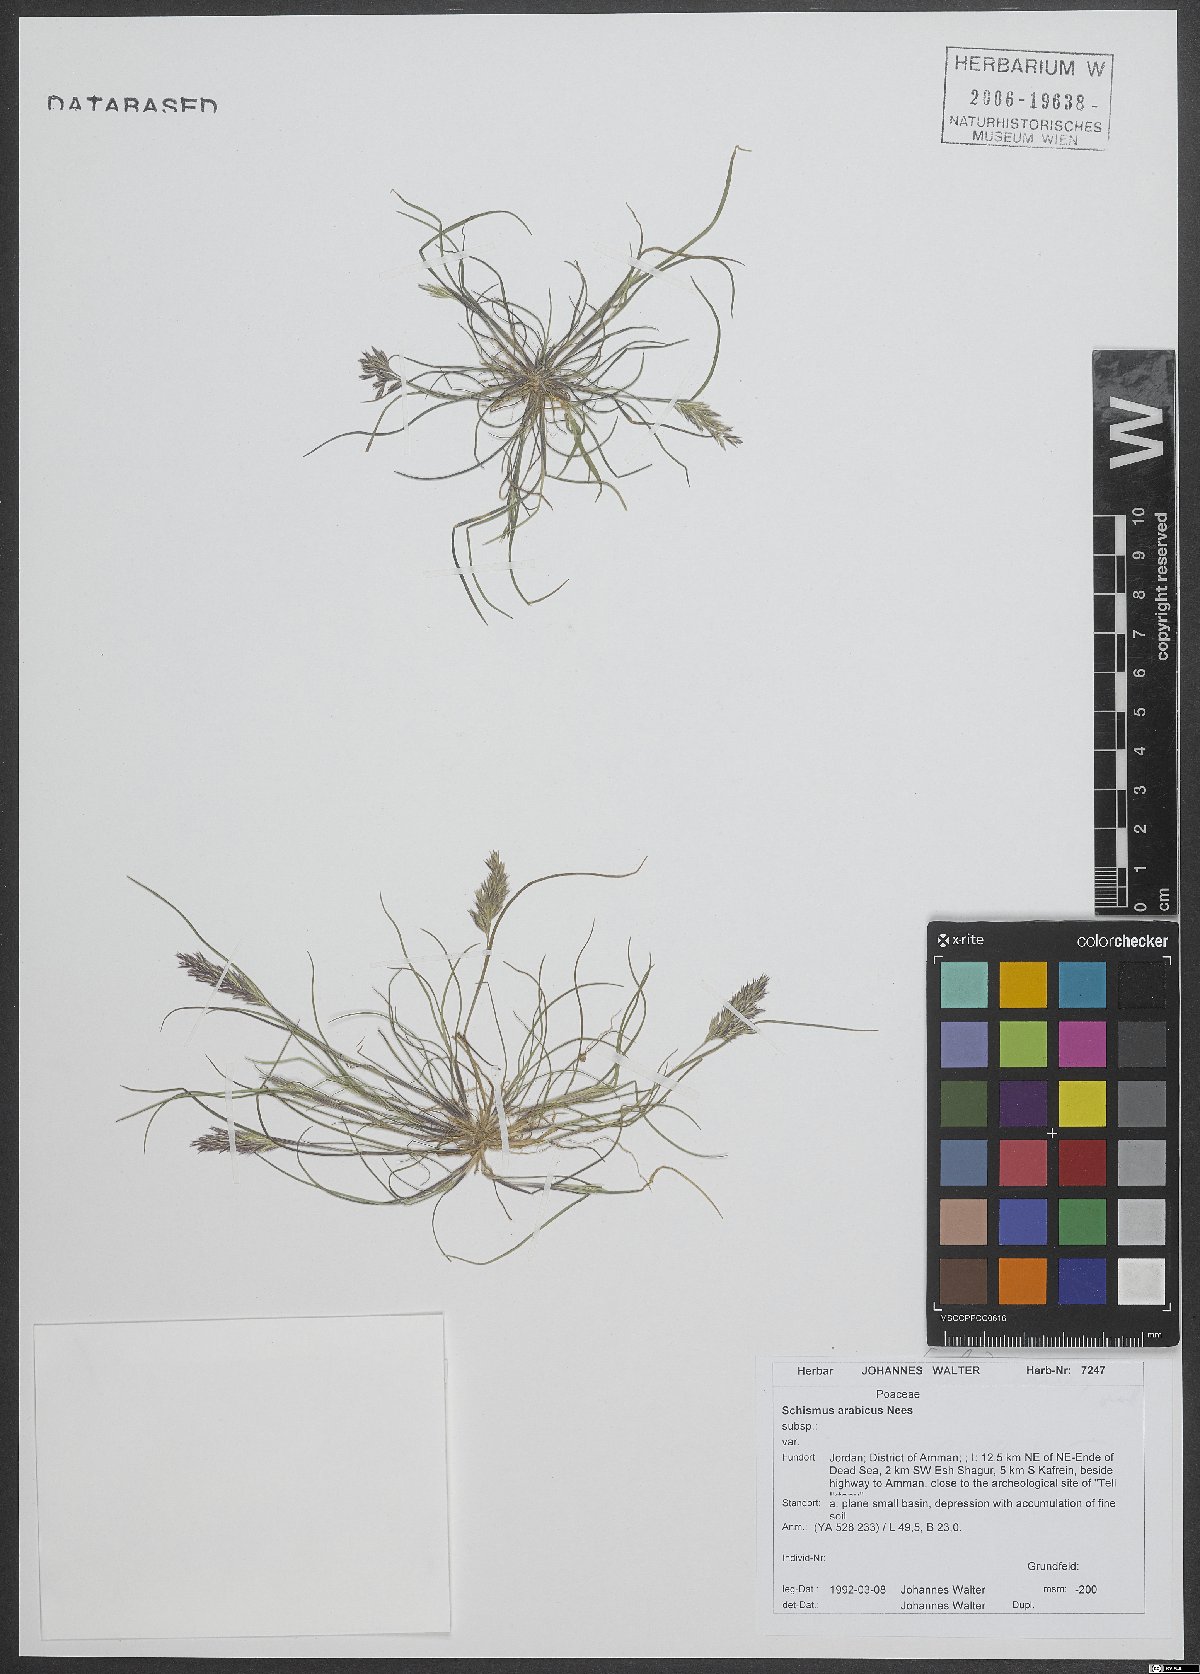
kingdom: Plantae
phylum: Tracheophyta
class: Liliopsida
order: Poales
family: Poaceae
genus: Schismus
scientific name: Schismus arabicus
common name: Arabian schismus
